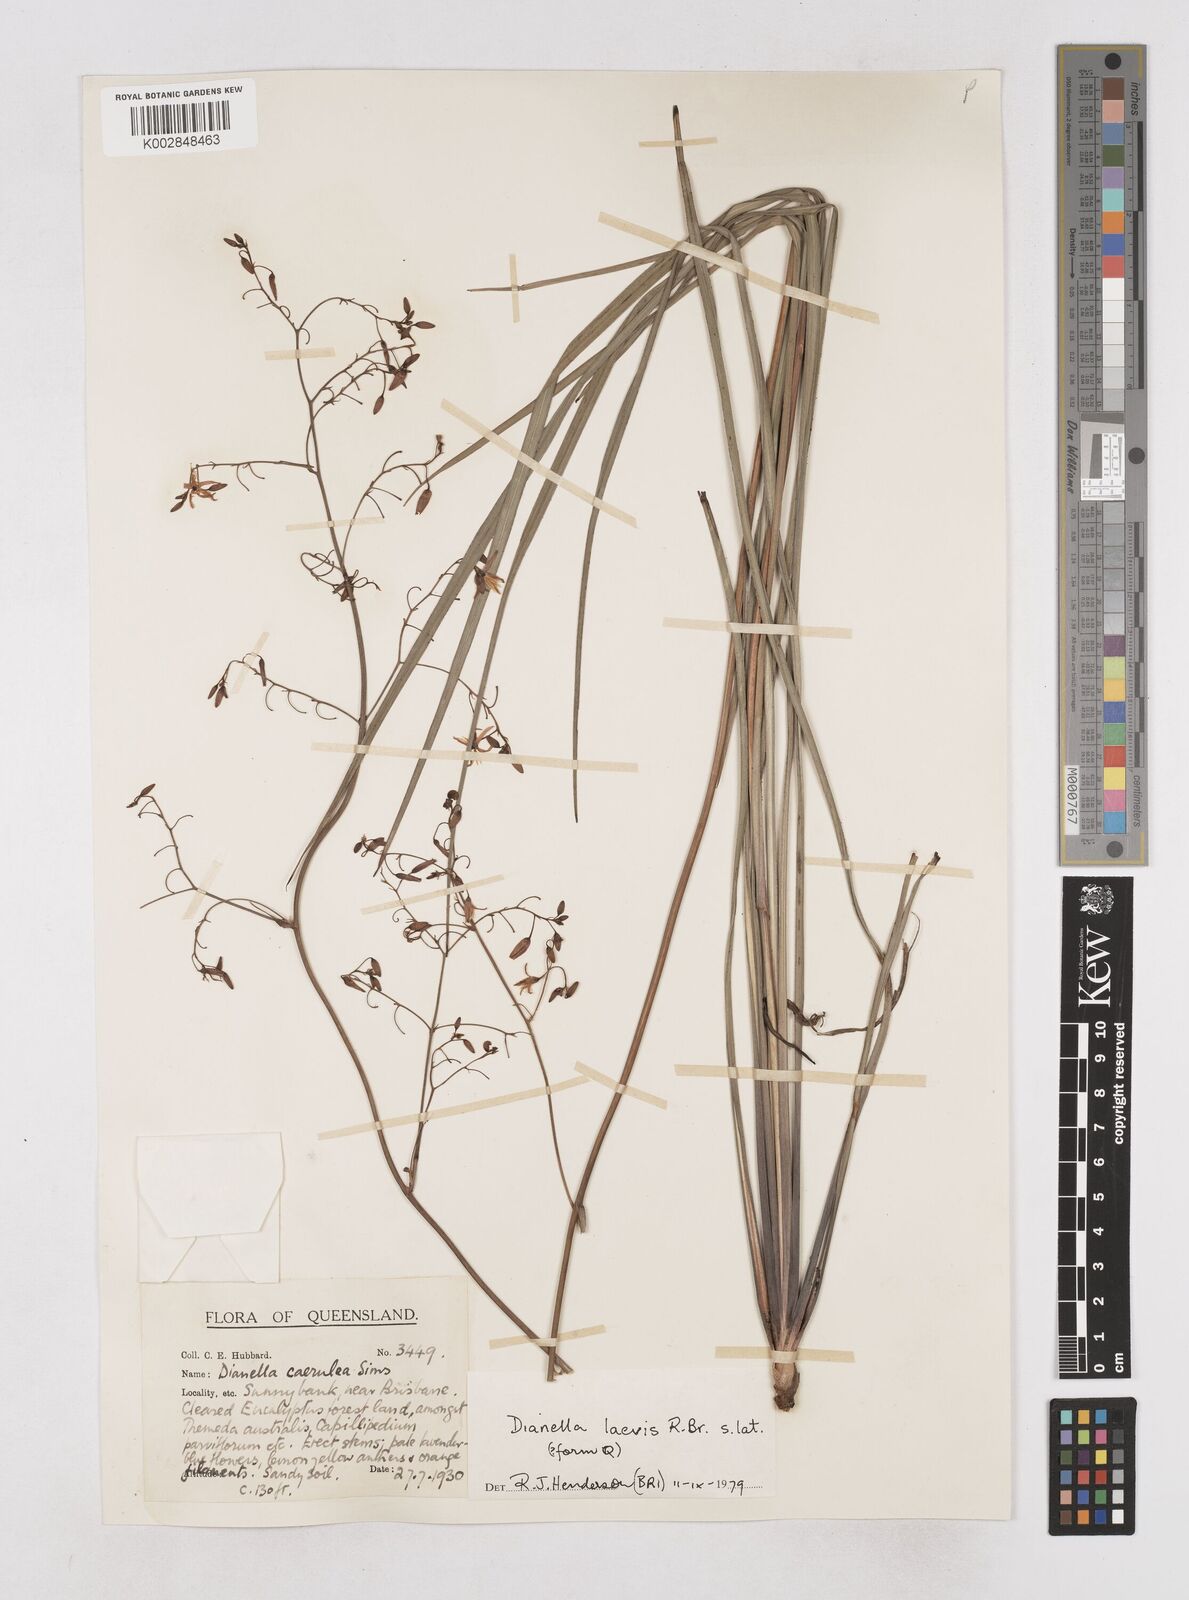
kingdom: Plantae
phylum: Tracheophyta
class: Liliopsida
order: Asparagales
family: Asphodelaceae
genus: Dianella
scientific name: Dianella longifolia
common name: Blue flax-lily
